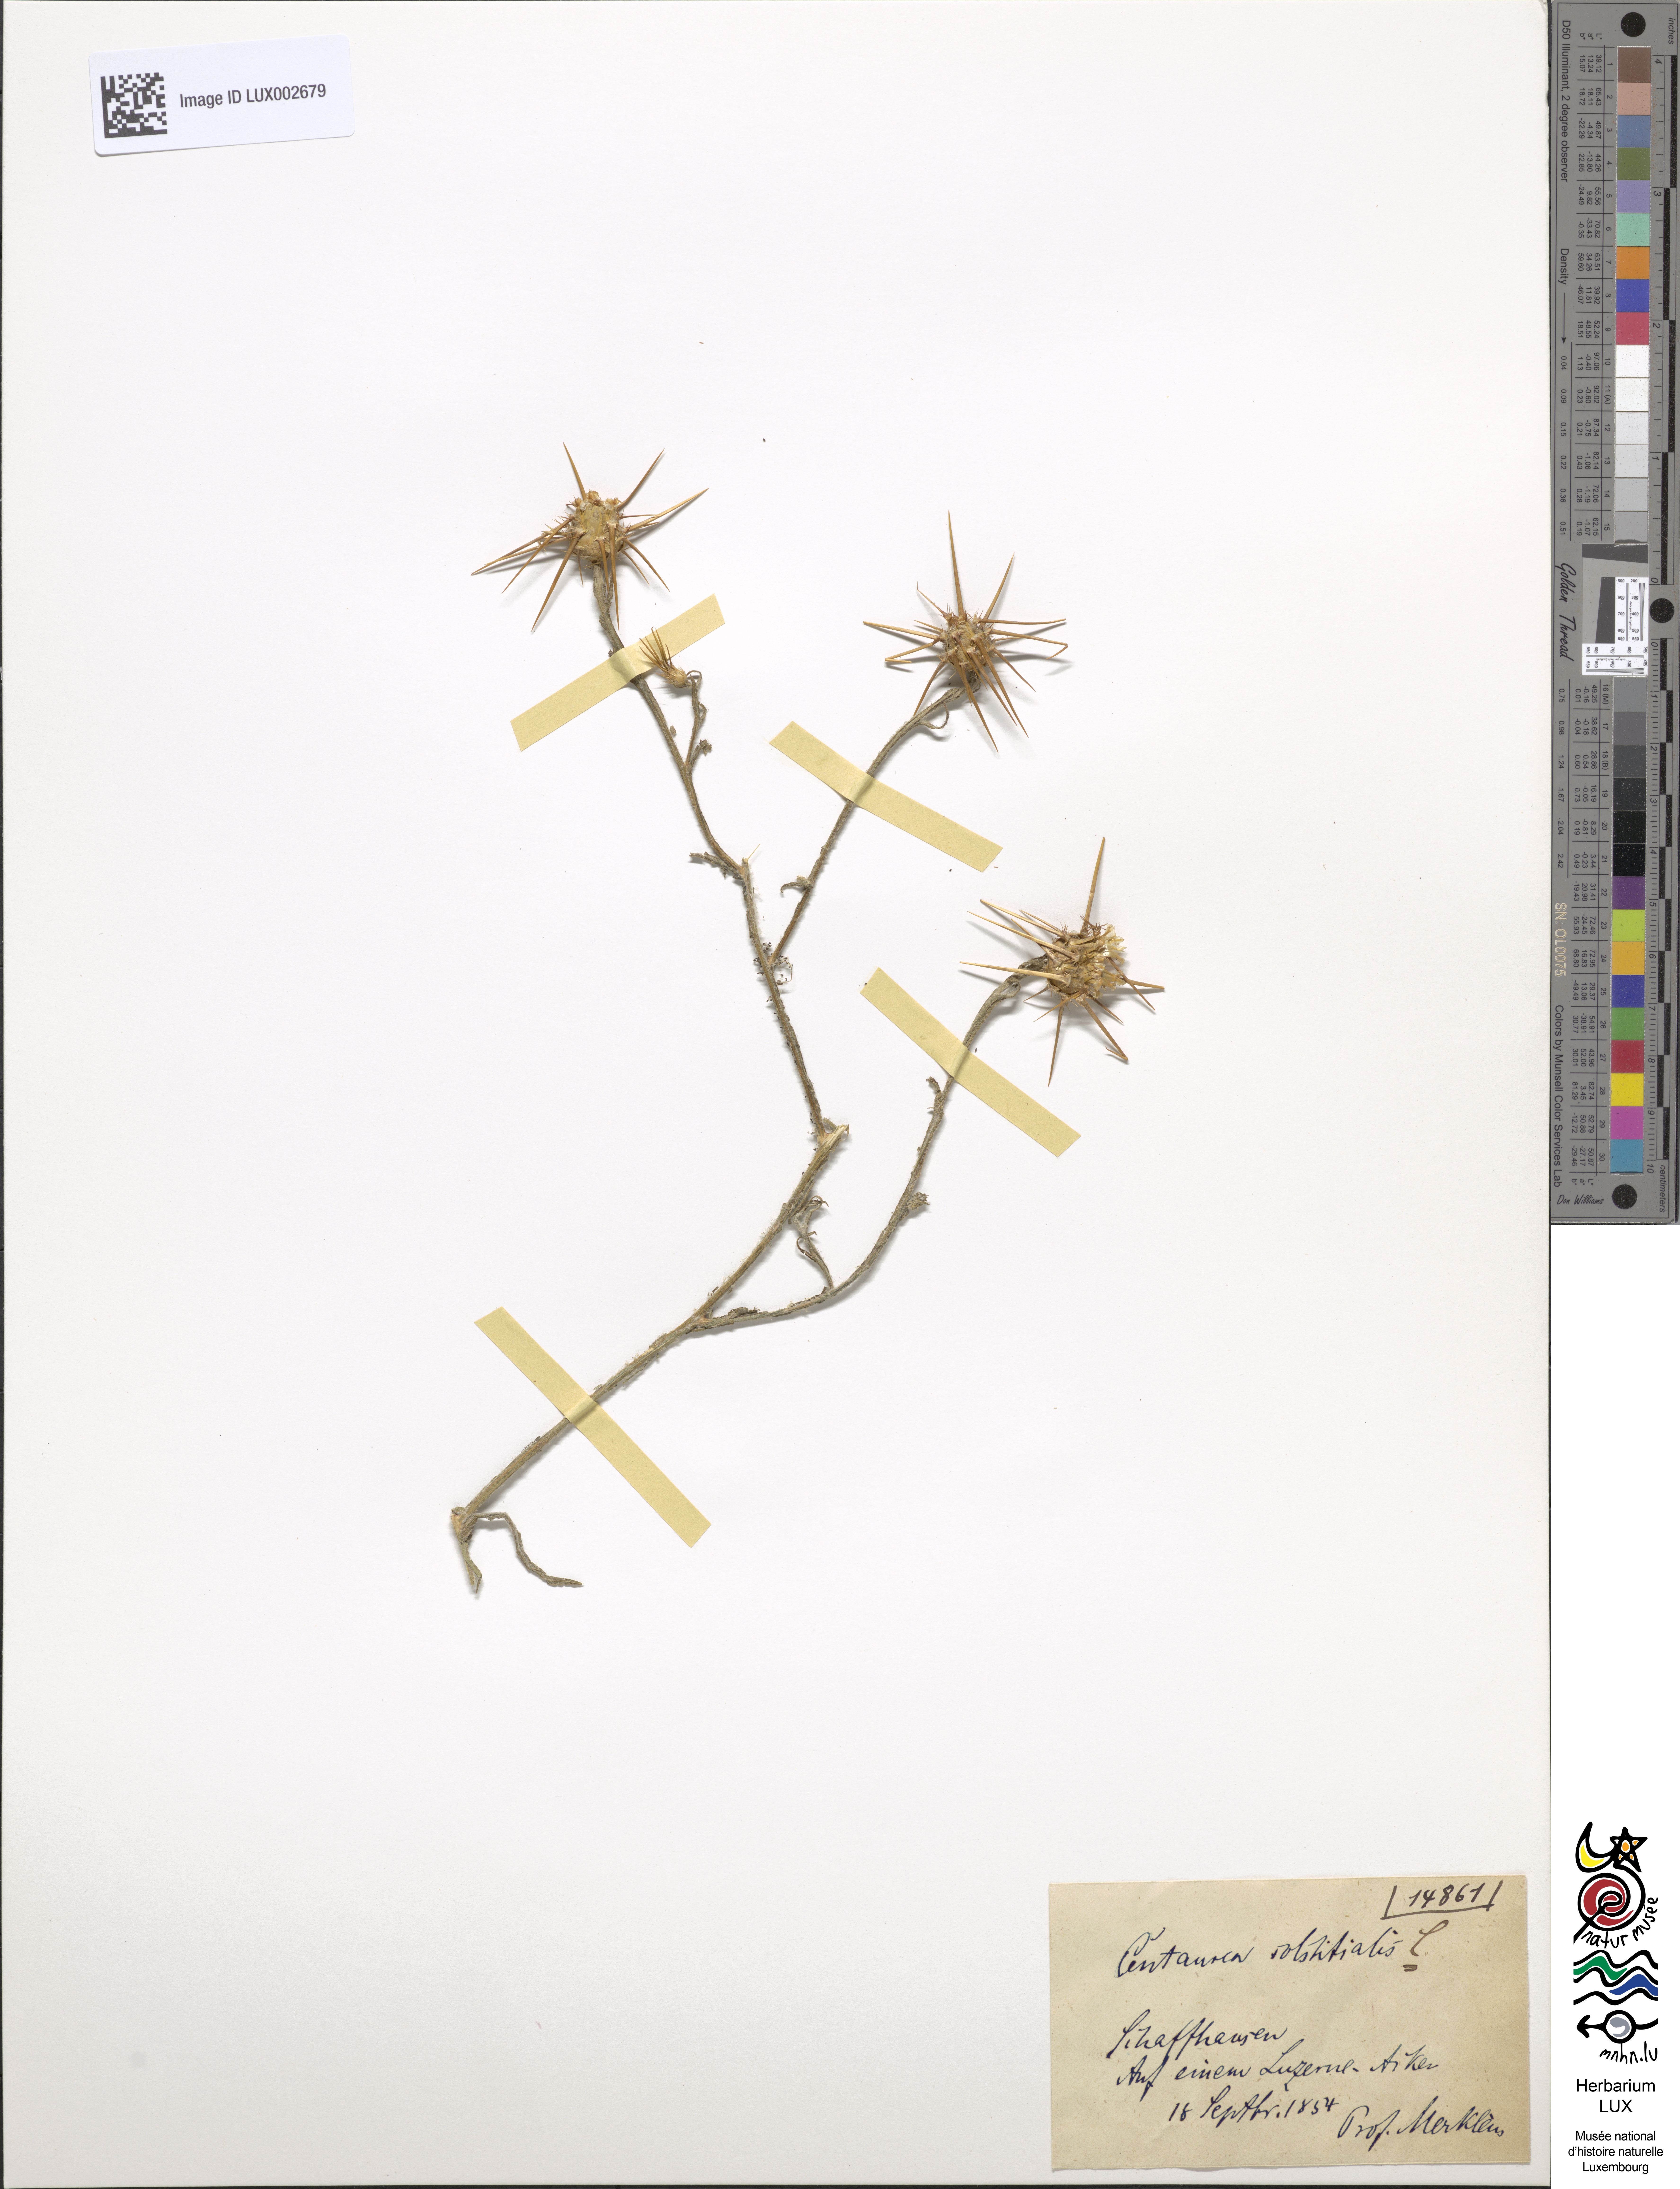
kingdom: Plantae
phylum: Tracheophyta
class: Magnoliopsida
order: Asterales
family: Asteraceae
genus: Centaurea
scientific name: Centaurea solstitialis
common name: Yellow star-thistle
